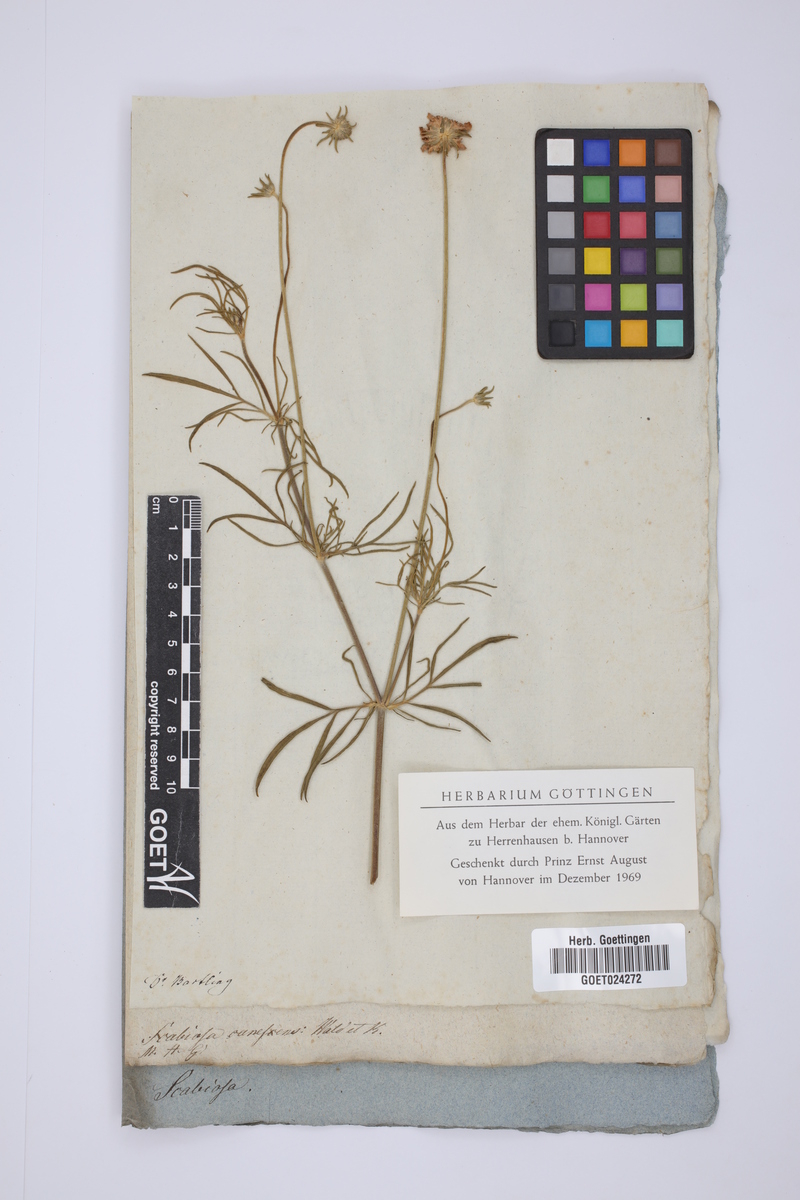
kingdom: Plantae
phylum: Tracheophyta
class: Magnoliopsida
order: Dipsacales
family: Caprifoliaceae
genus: Scabiosa
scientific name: Scabiosa canescens
